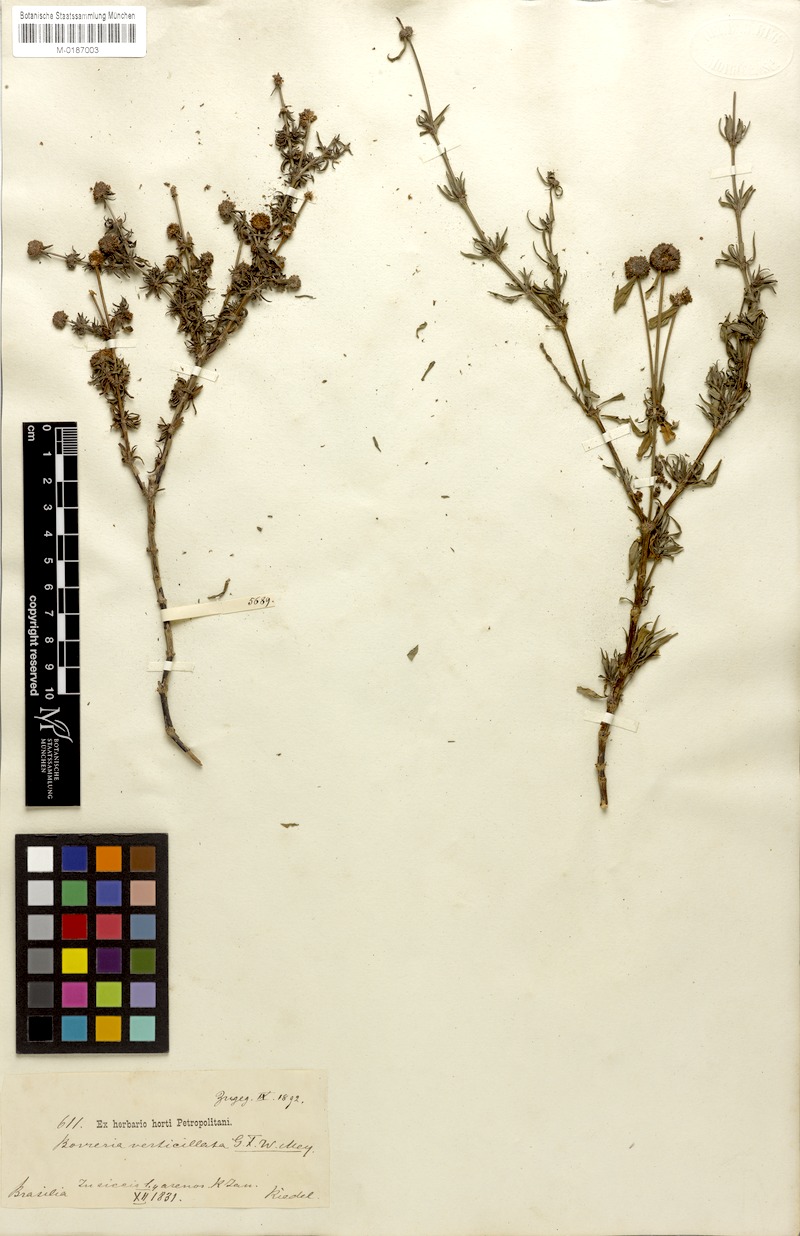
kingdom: Plantae
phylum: Tracheophyta
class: Magnoliopsida
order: Gentianales
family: Rubiaceae
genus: Spermacoce
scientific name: Spermacoce verticillata
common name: Shrubby false buttonweed
